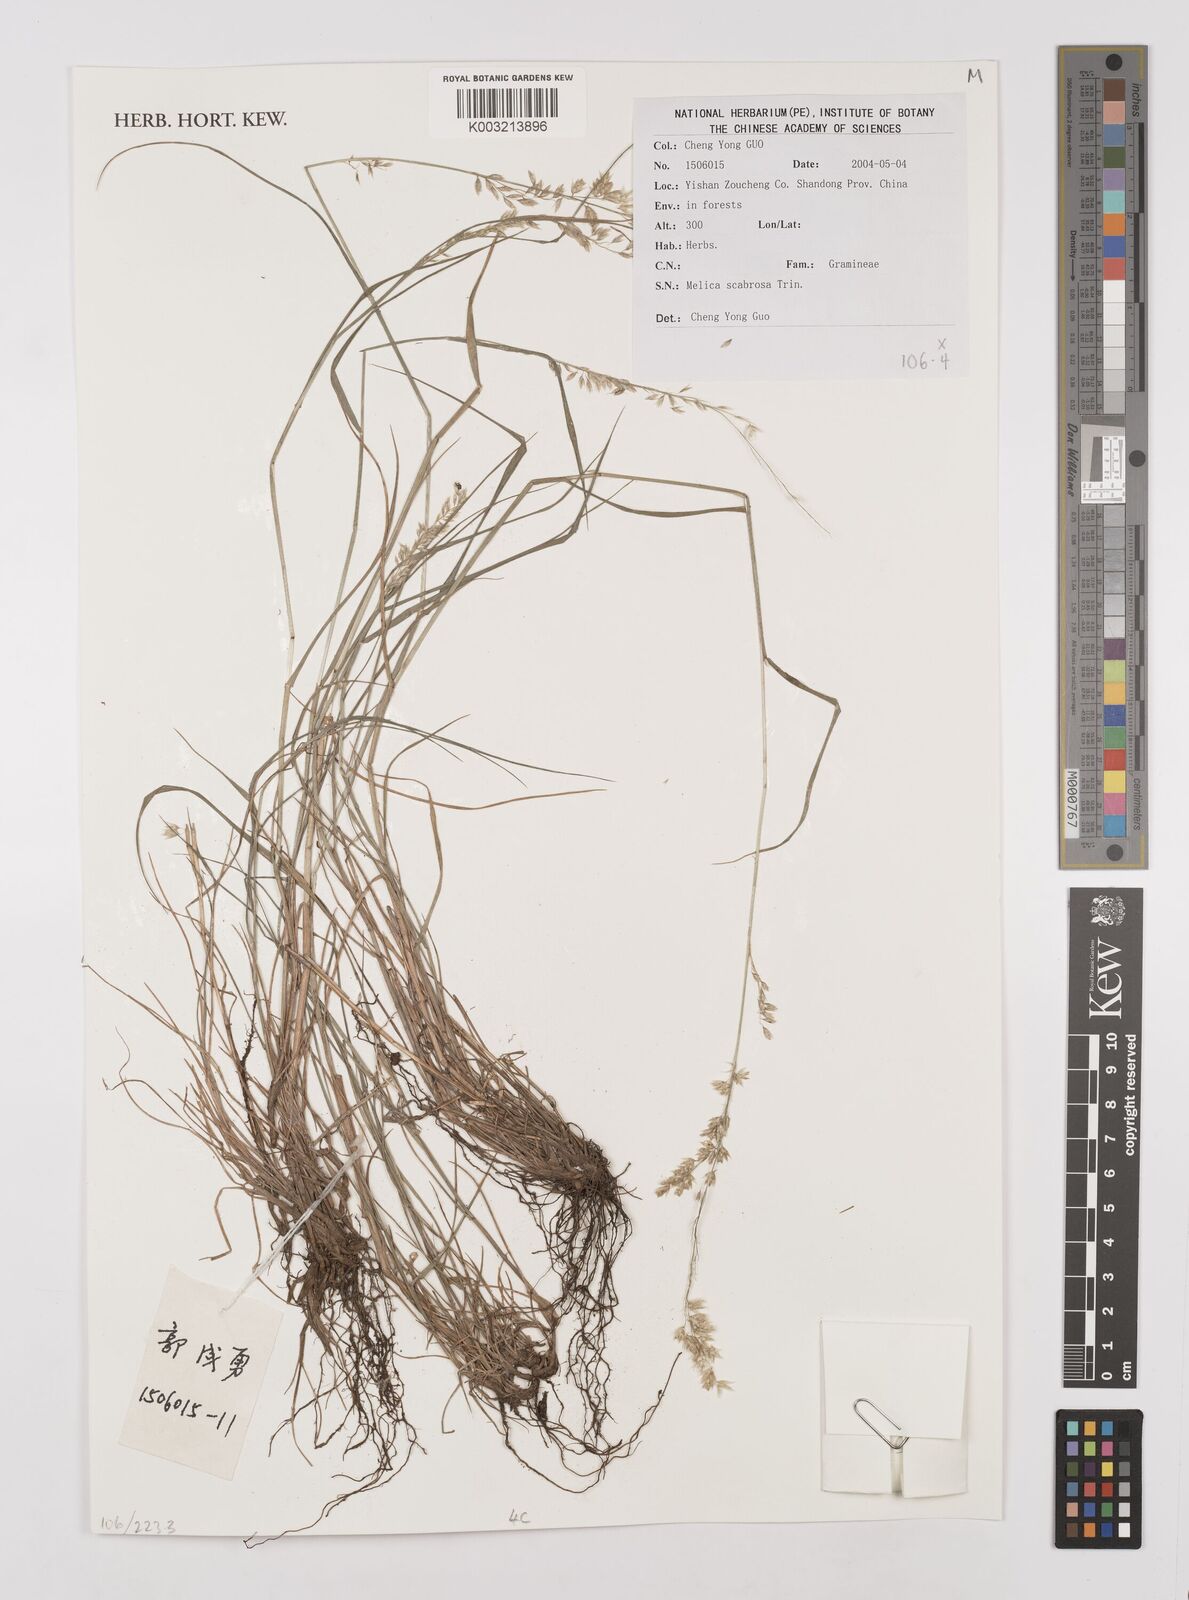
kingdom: Plantae
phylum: Tracheophyta
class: Liliopsida
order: Poales
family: Poaceae
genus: Melica
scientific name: Melica scabrosa
